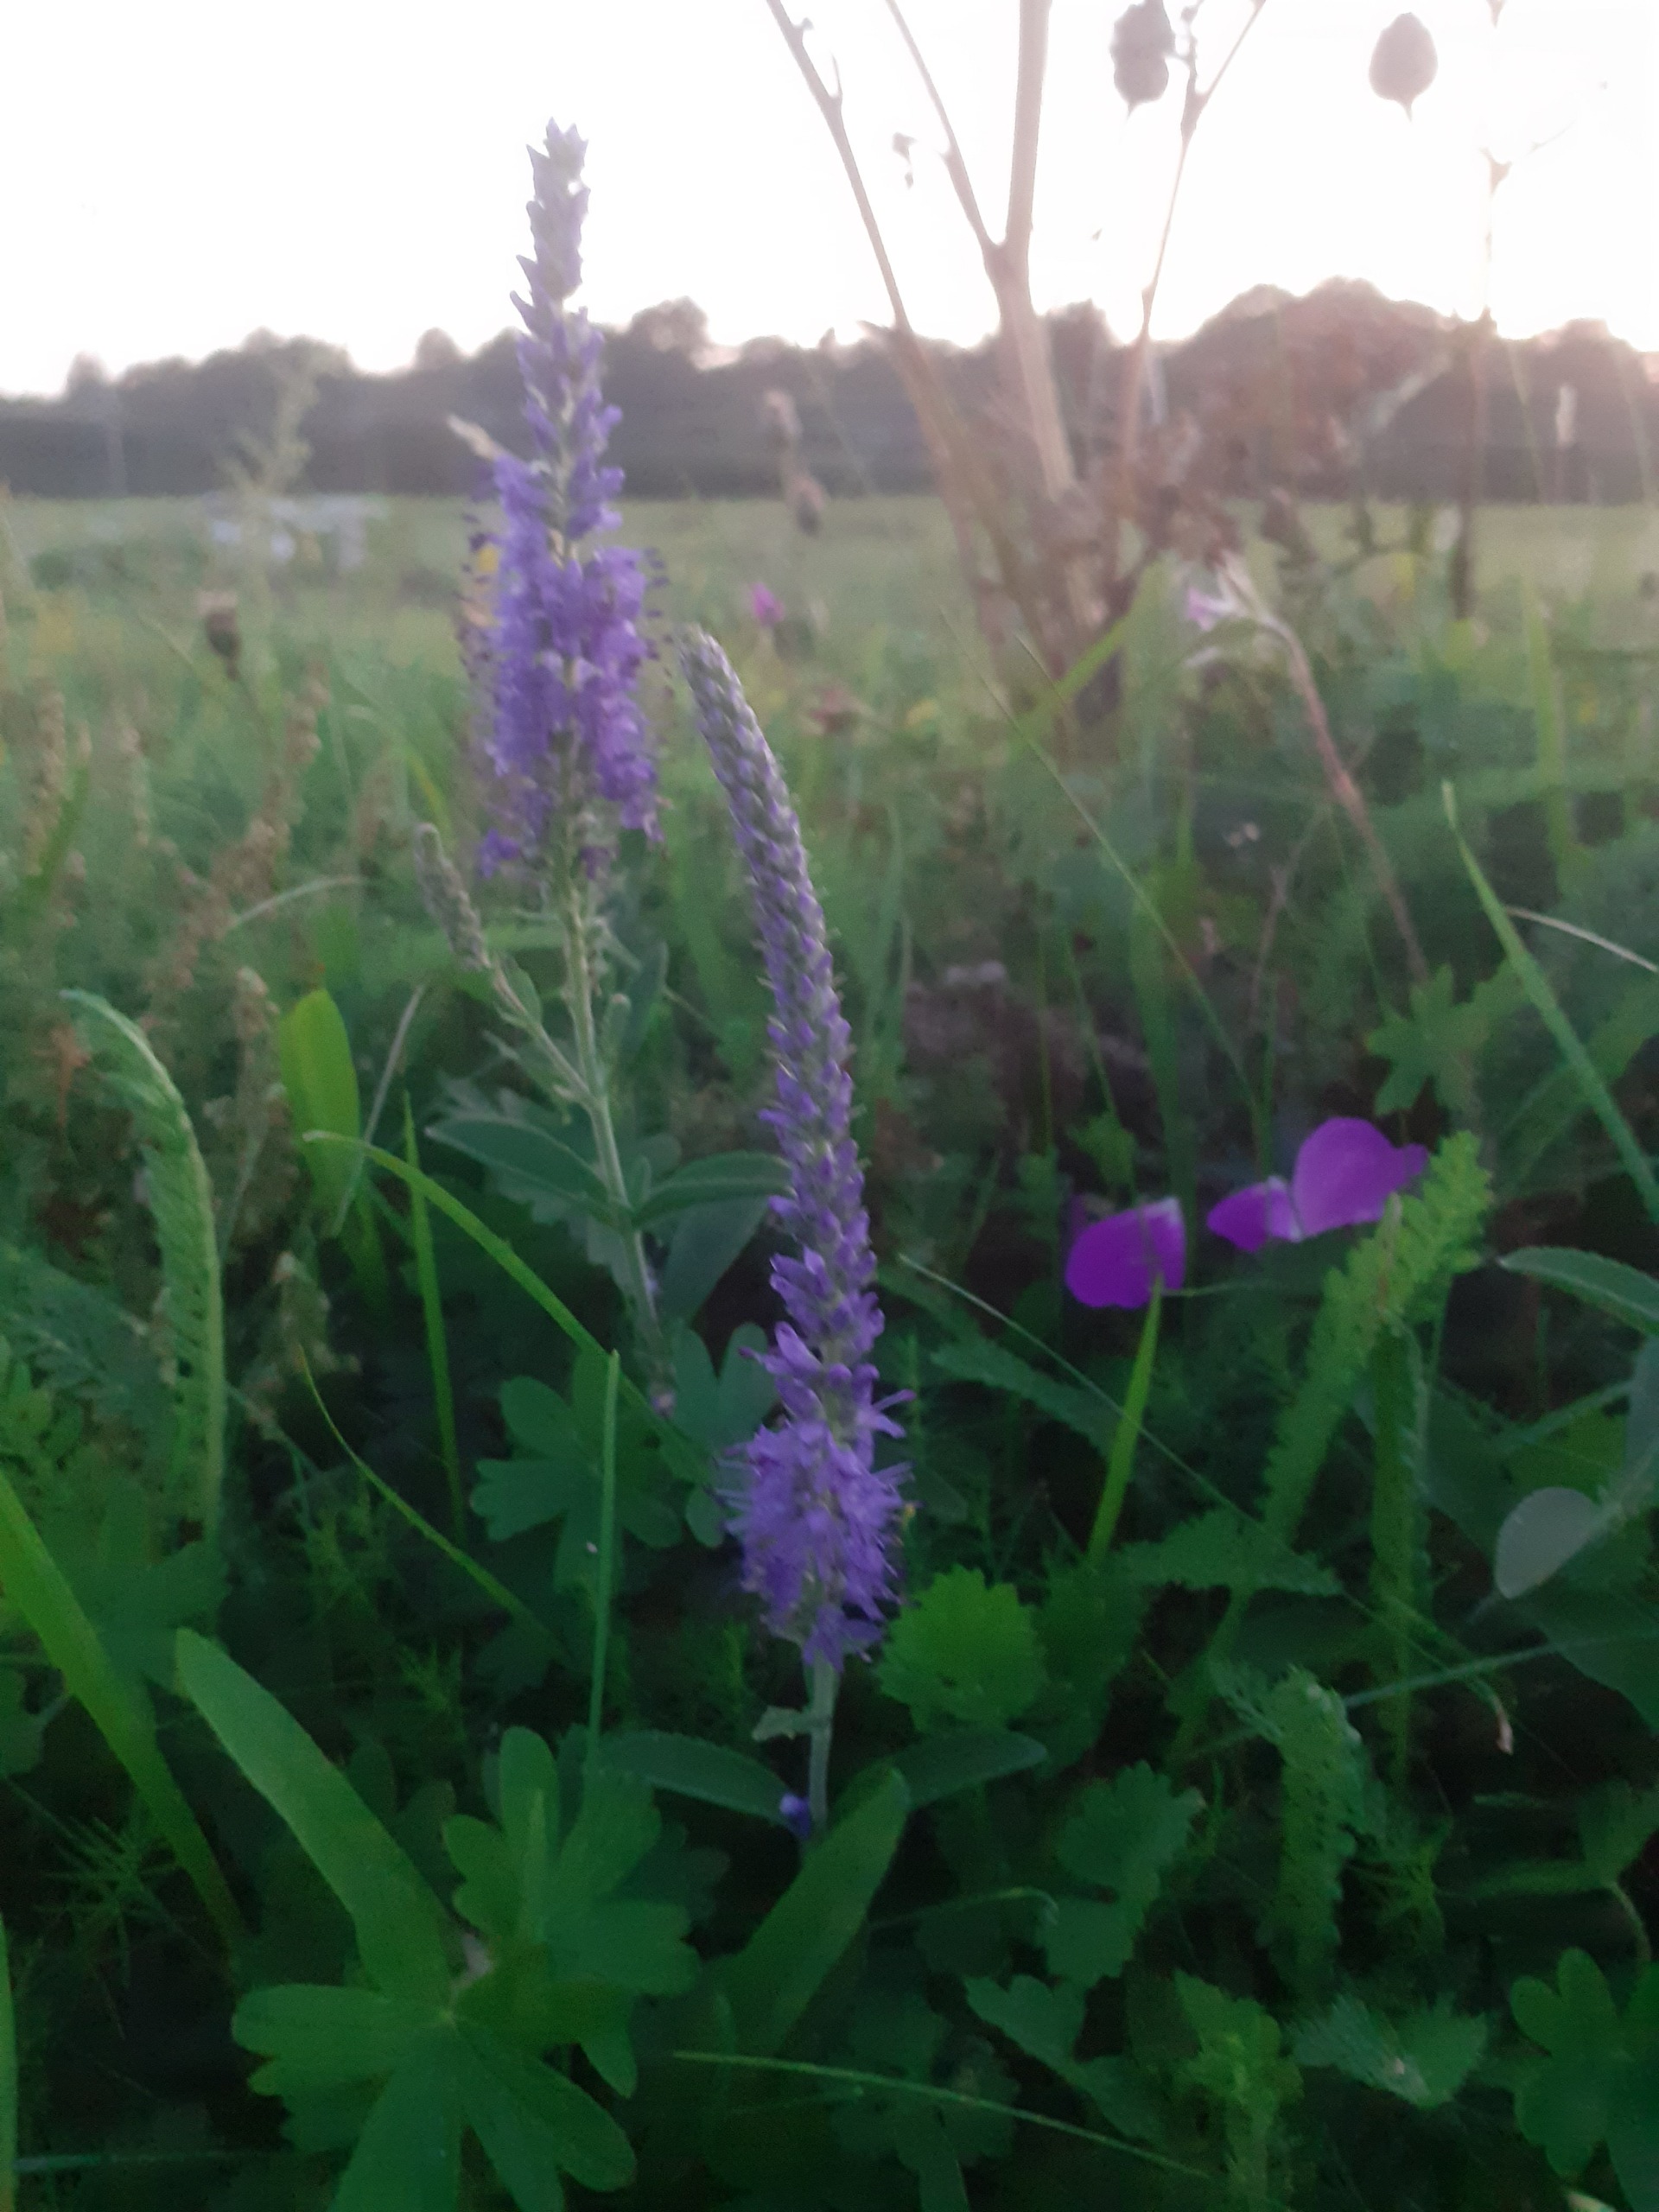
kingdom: Plantae
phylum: Tracheophyta
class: Magnoliopsida
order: Lamiales
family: Plantaginaceae
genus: Veronica
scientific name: Veronica spicata
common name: Aks-ærenpris
